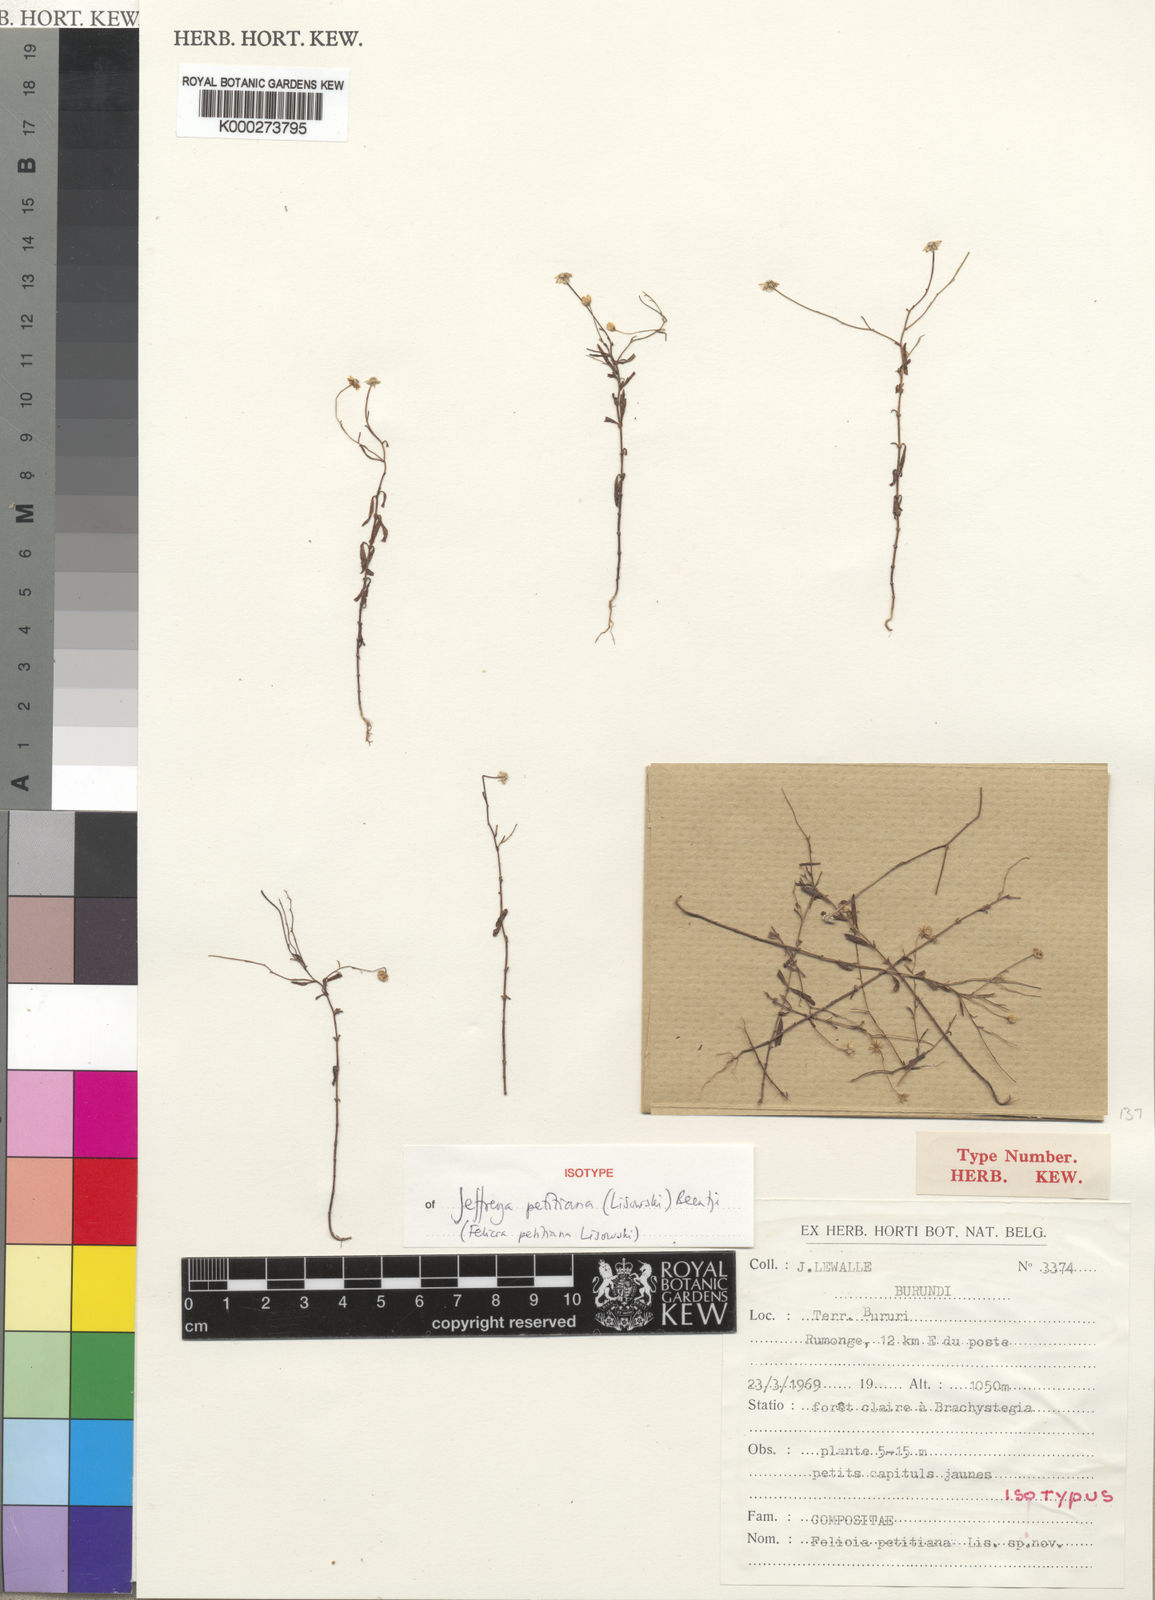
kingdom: Plantae
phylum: Tracheophyta
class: Magnoliopsida
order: Asterales
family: Asteraceae
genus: Jeffreya
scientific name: Jeffreya petitiana
